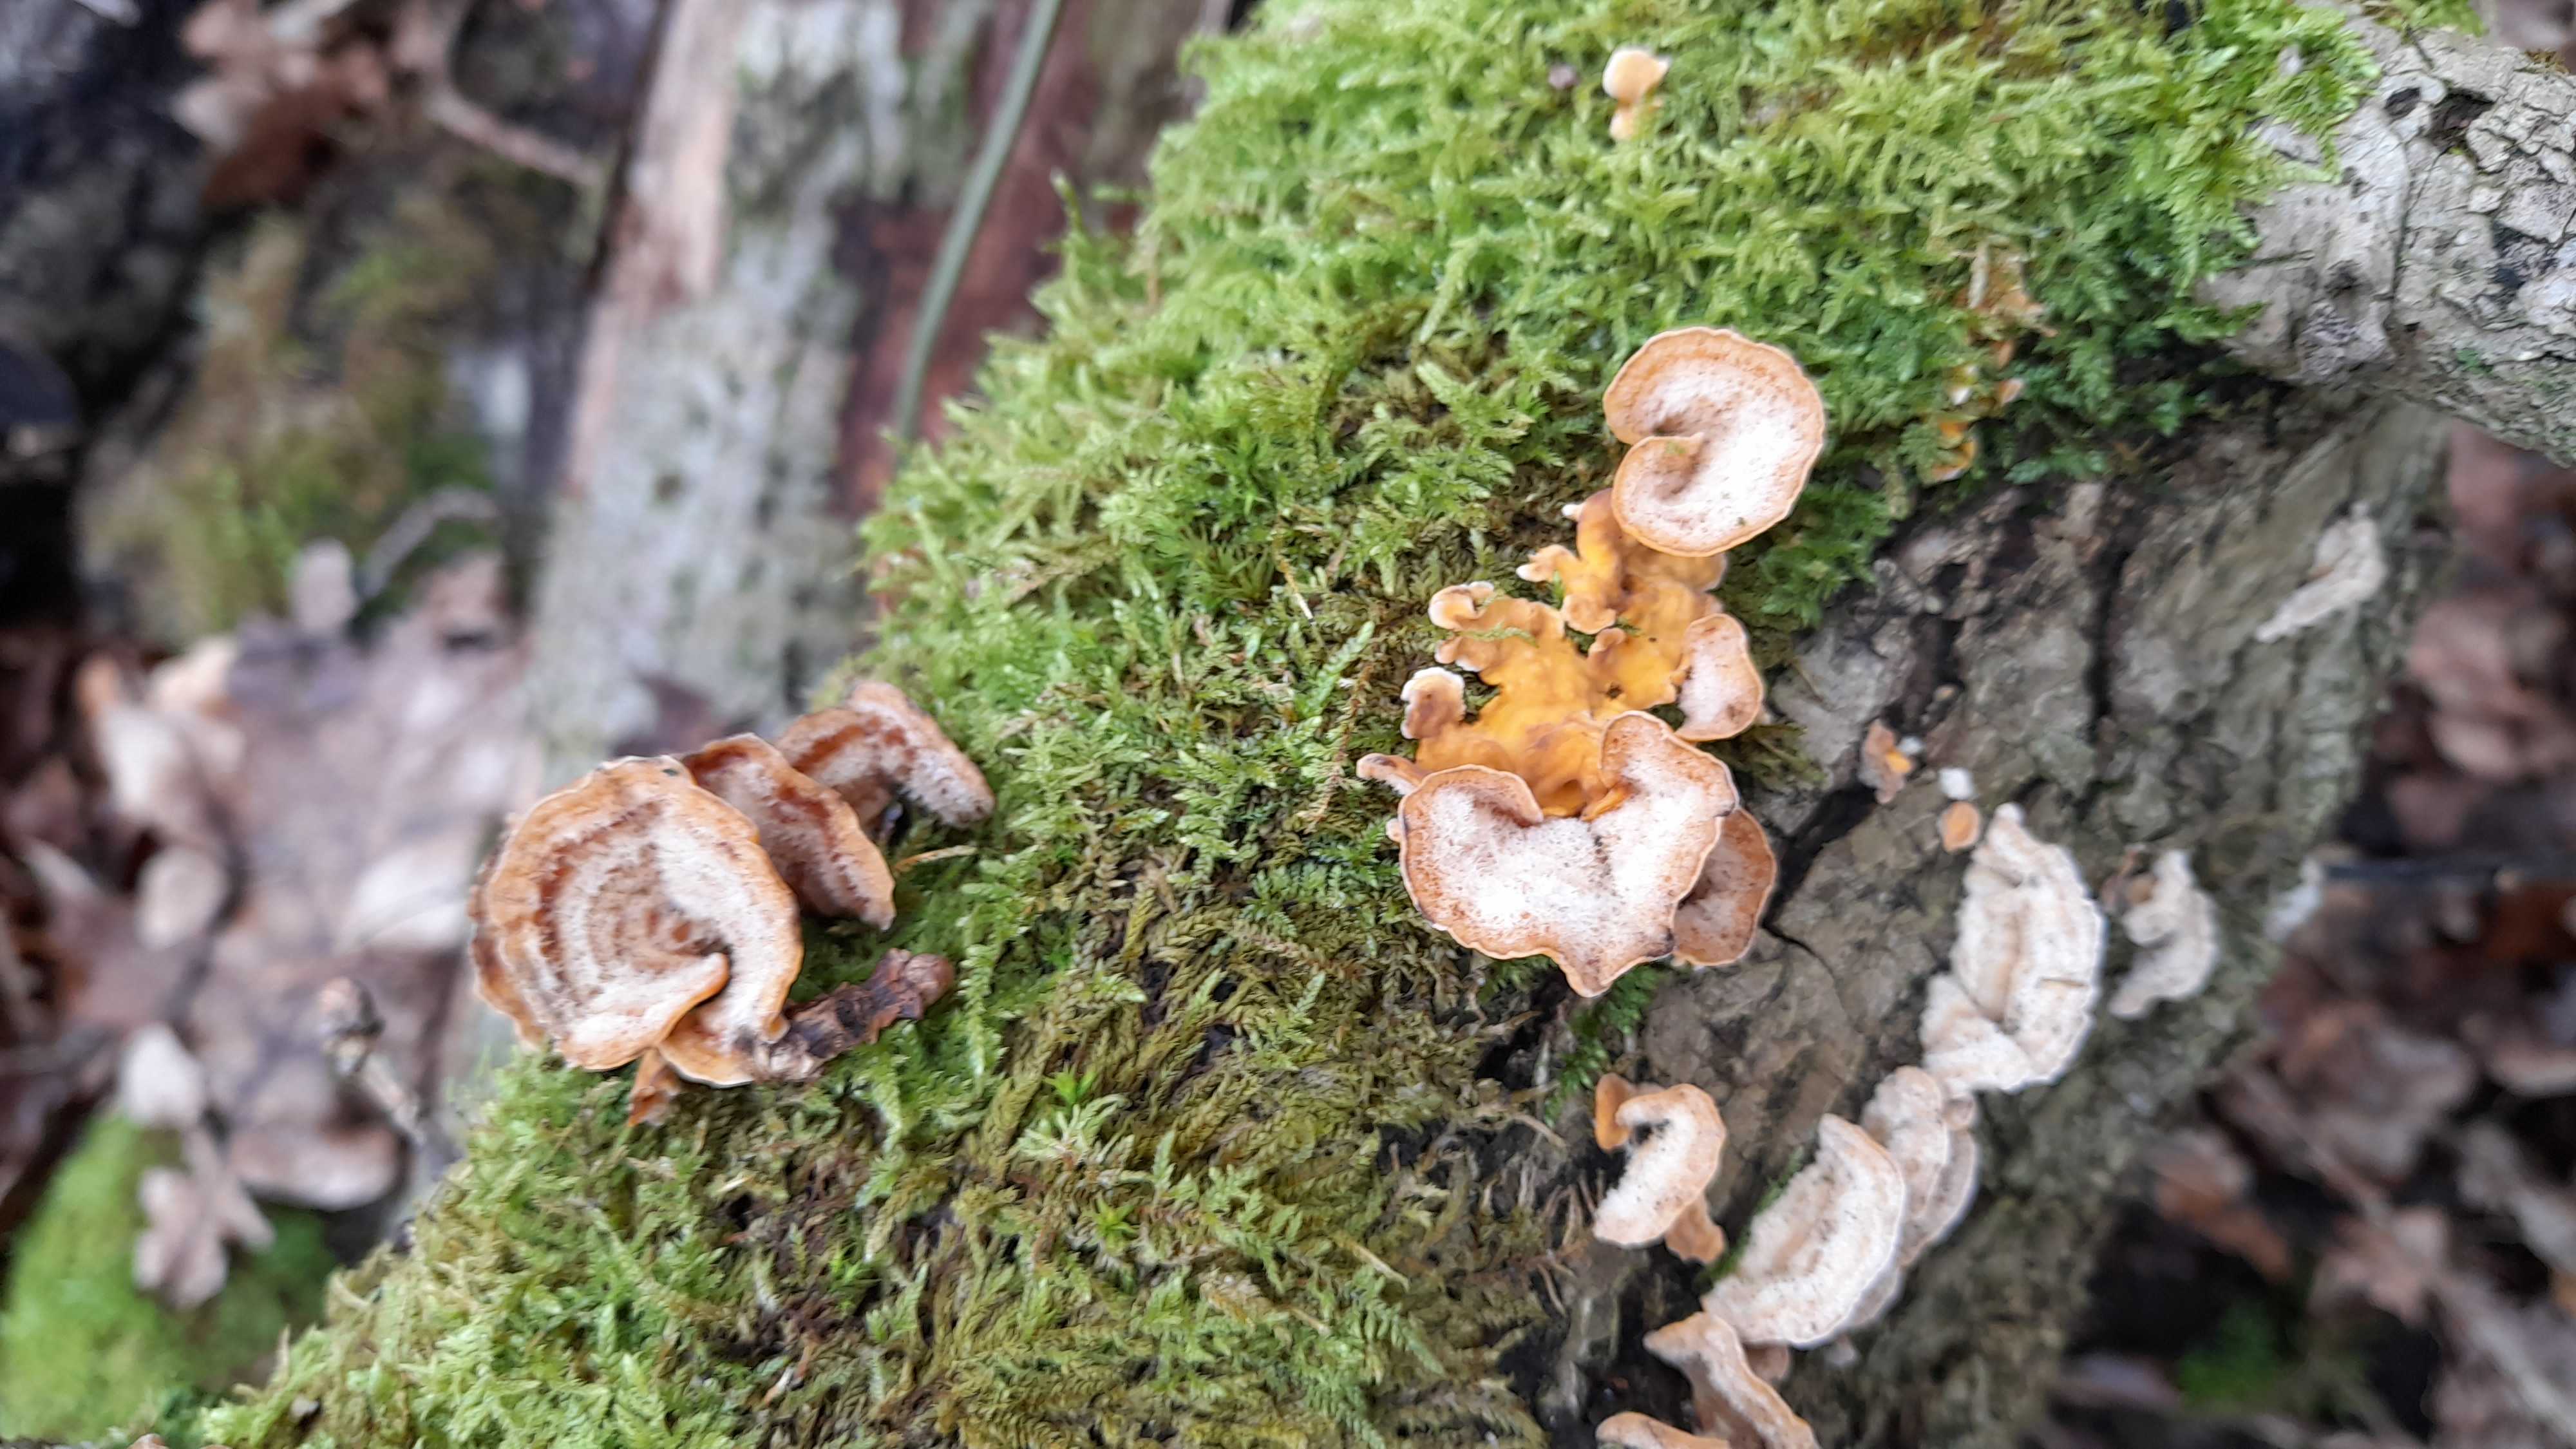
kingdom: Fungi
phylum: Basidiomycota
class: Agaricomycetes
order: Russulales
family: Stereaceae
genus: Stereum
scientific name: Stereum hirsutum
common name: håret lædersvamp
